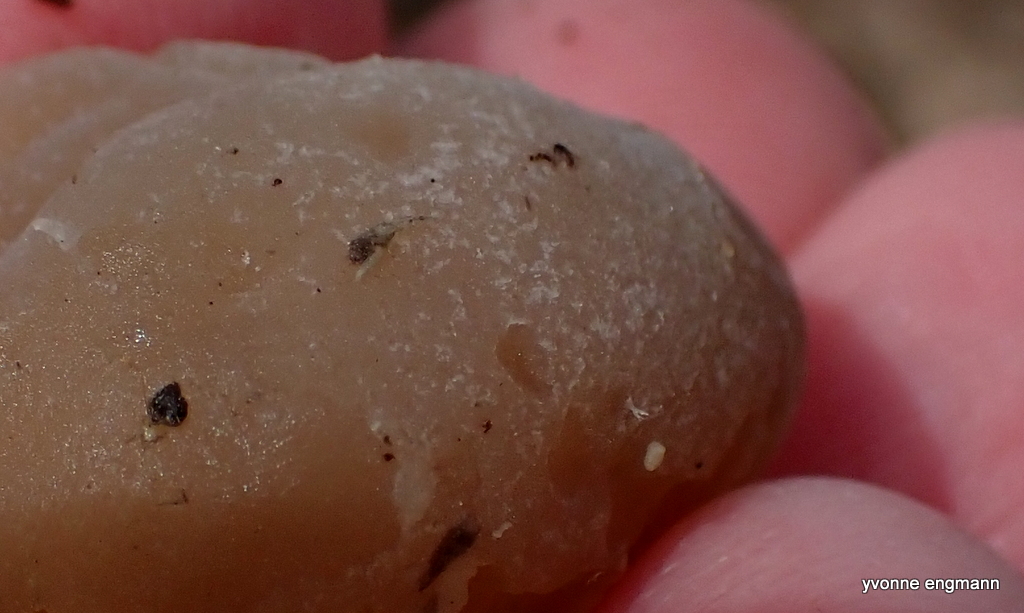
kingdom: Fungi
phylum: Ascomycota
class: Pezizomycetes
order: Pezizales
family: Pezizaceae
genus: Peziza
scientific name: Peziza varia
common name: Ved-bægersvamp
